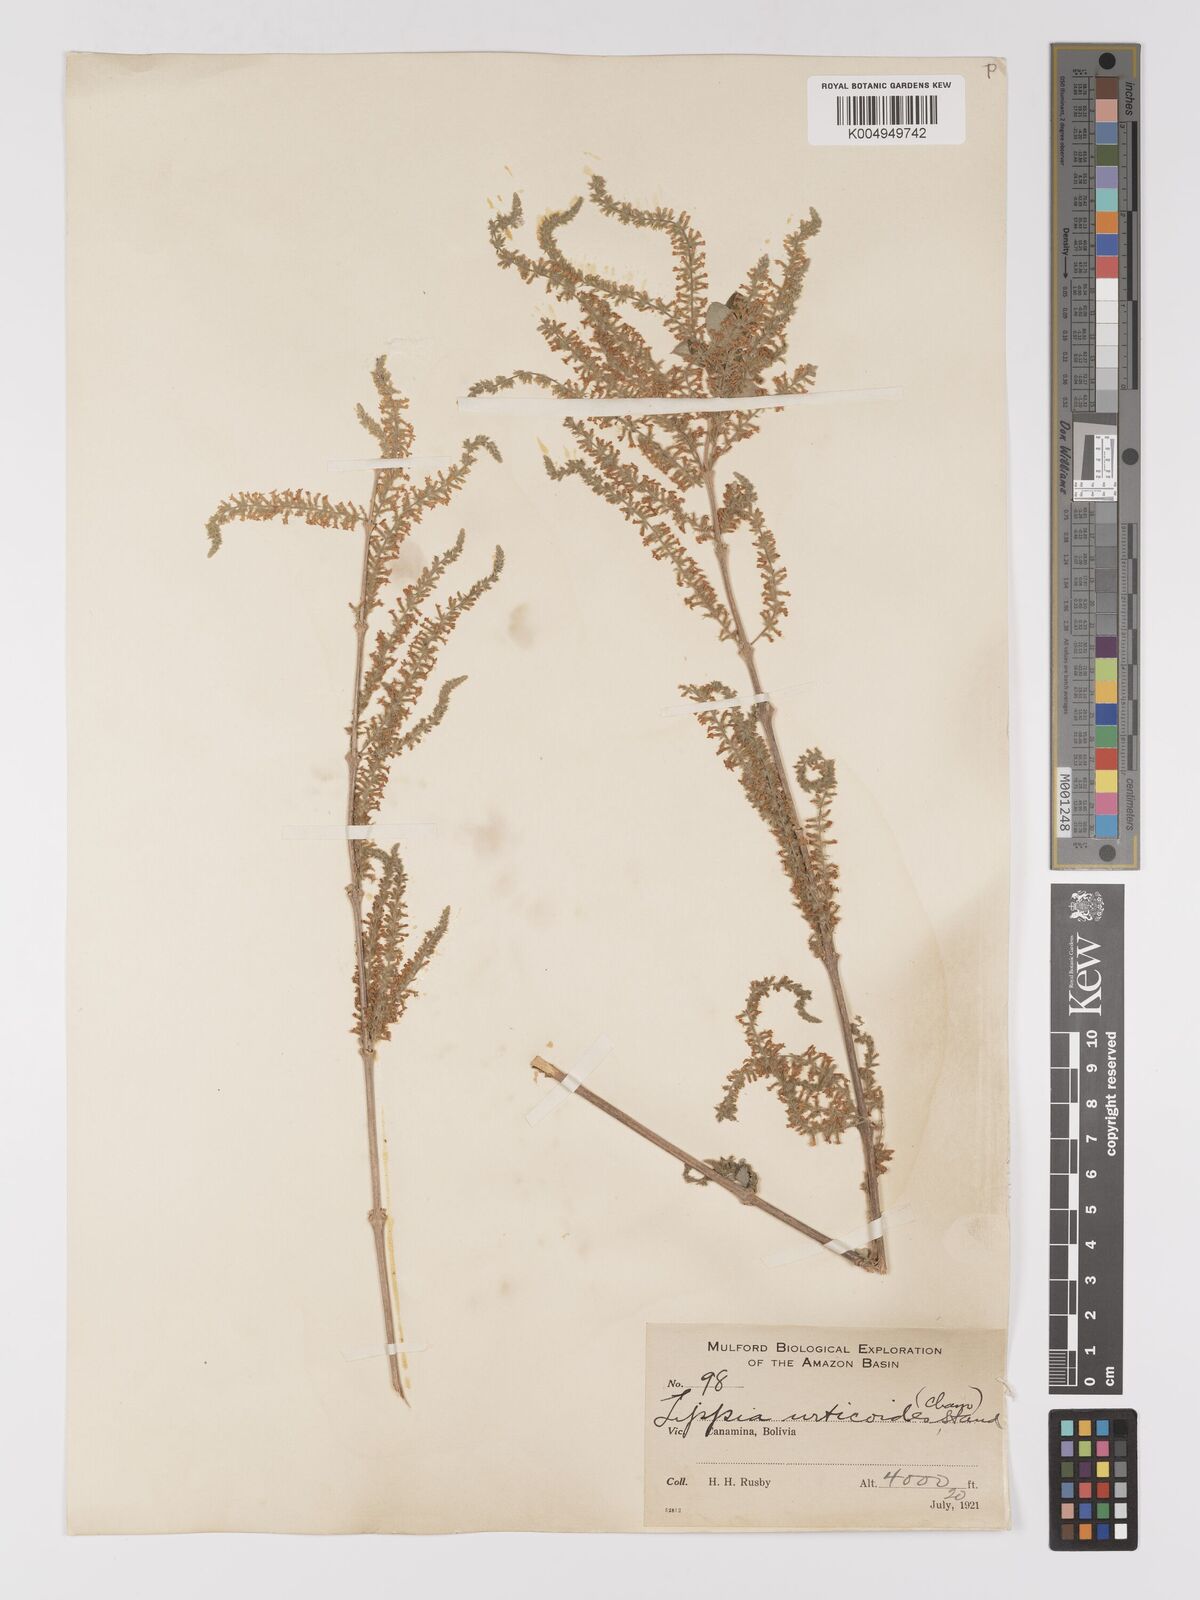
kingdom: Plantae
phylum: Tracheophyta
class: Magnoliopsida
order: Lamiales
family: Verbenaceae
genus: Aloysia
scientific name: Aloysia virgata
